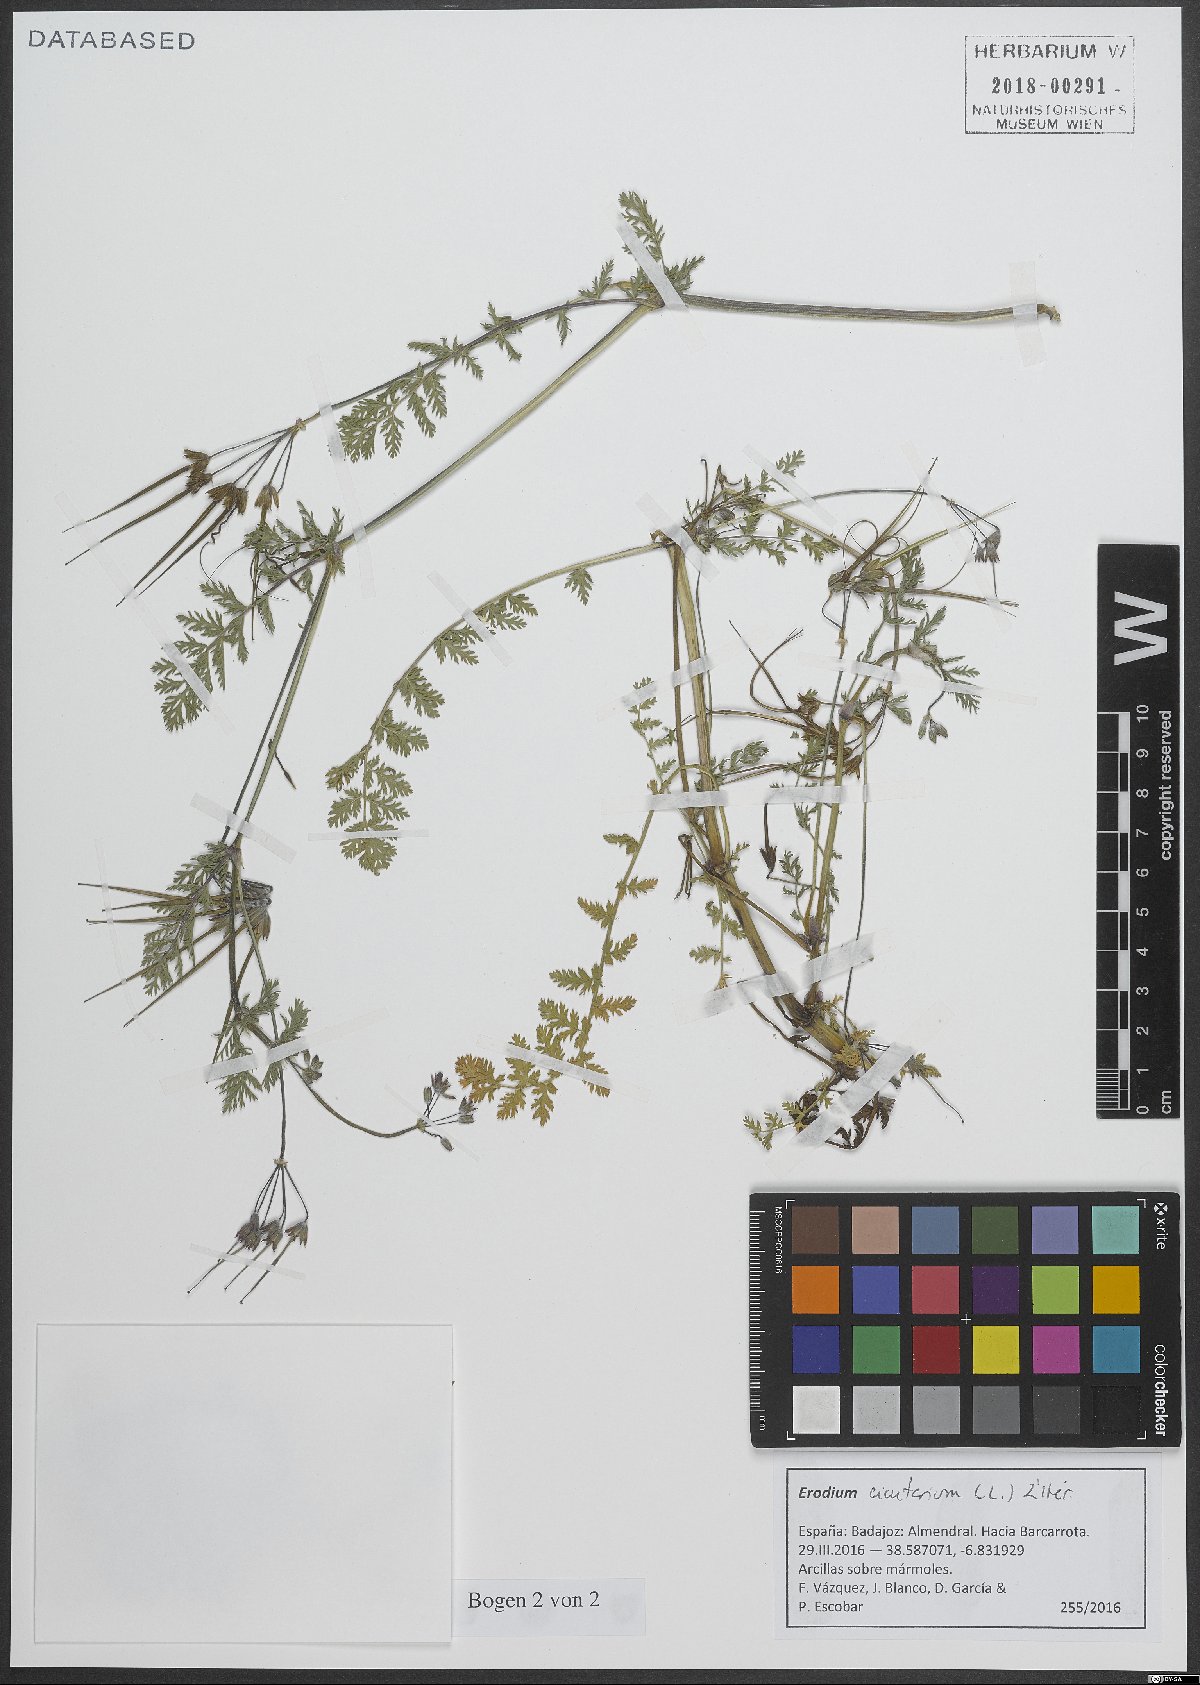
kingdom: Plantae
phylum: Tracheophyta
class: Magnoliopsida
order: Geraniales
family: Geraniaceae
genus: Erodium
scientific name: Erodium cicutarium
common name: Common stork's-bill
